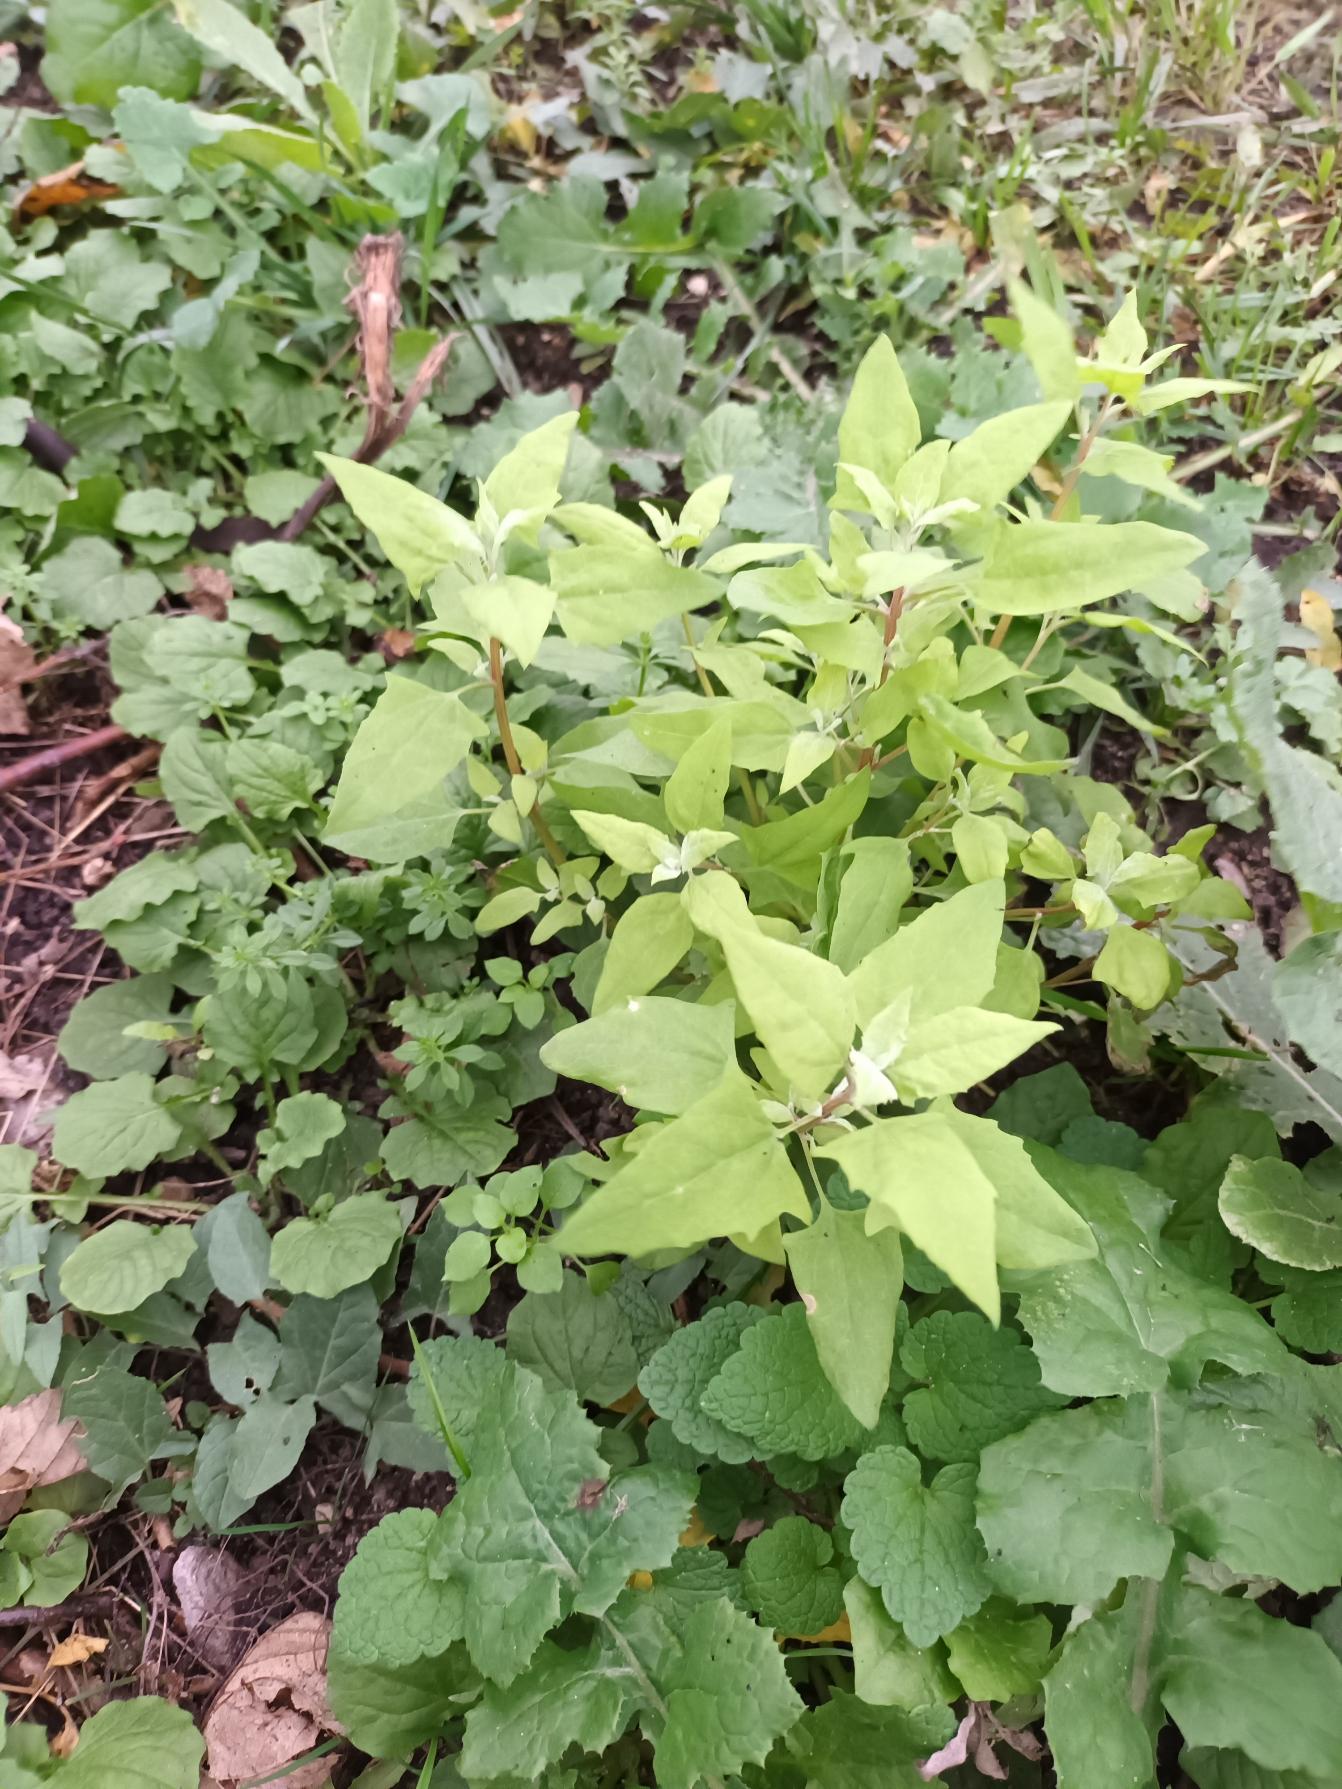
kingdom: Plantae
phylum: Tracheophyta
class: Magnoliopsida
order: Caryophyllales
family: Amaranthaceae
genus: Atriplex
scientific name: Atriplex prostrata
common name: Spyd-mælde
